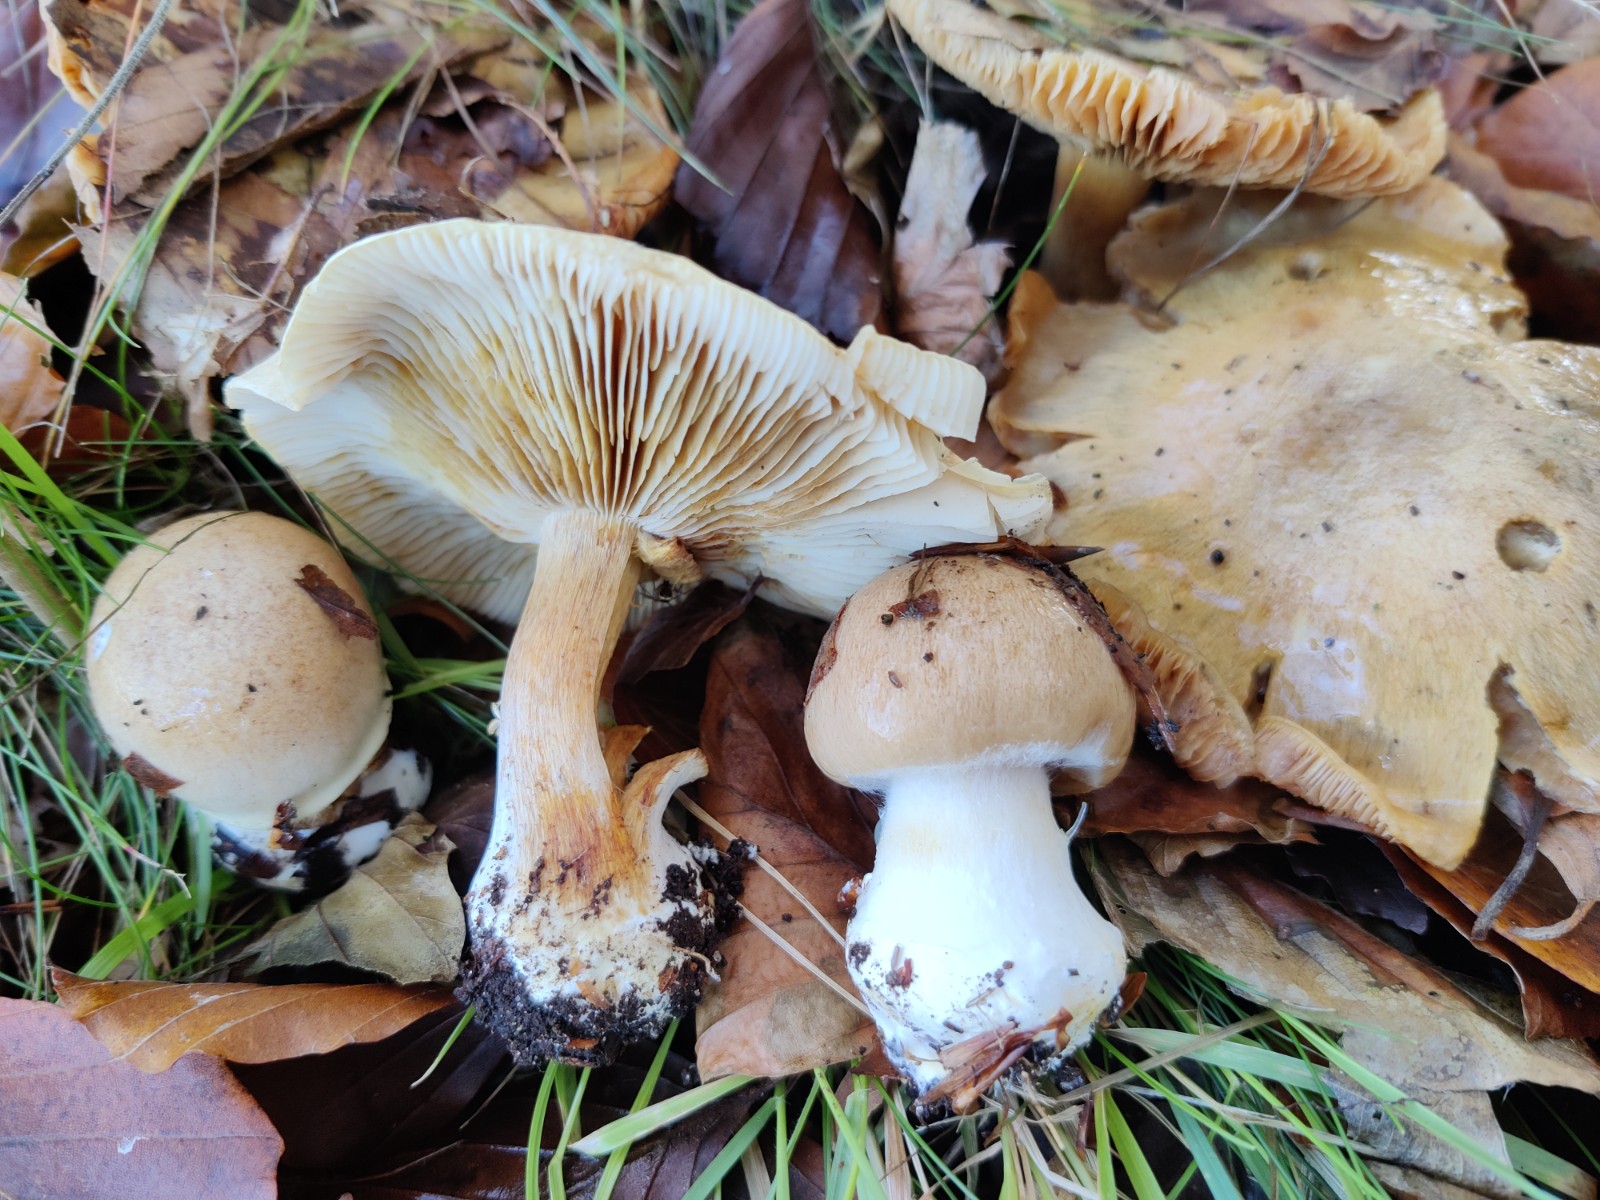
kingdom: Fungi
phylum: Basidiomycota
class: Agaricomycetes
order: Agaricales
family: Cortinariaceae
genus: Thaxterogaster
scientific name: Thaxterogaster talus
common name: knogle-slørhat
